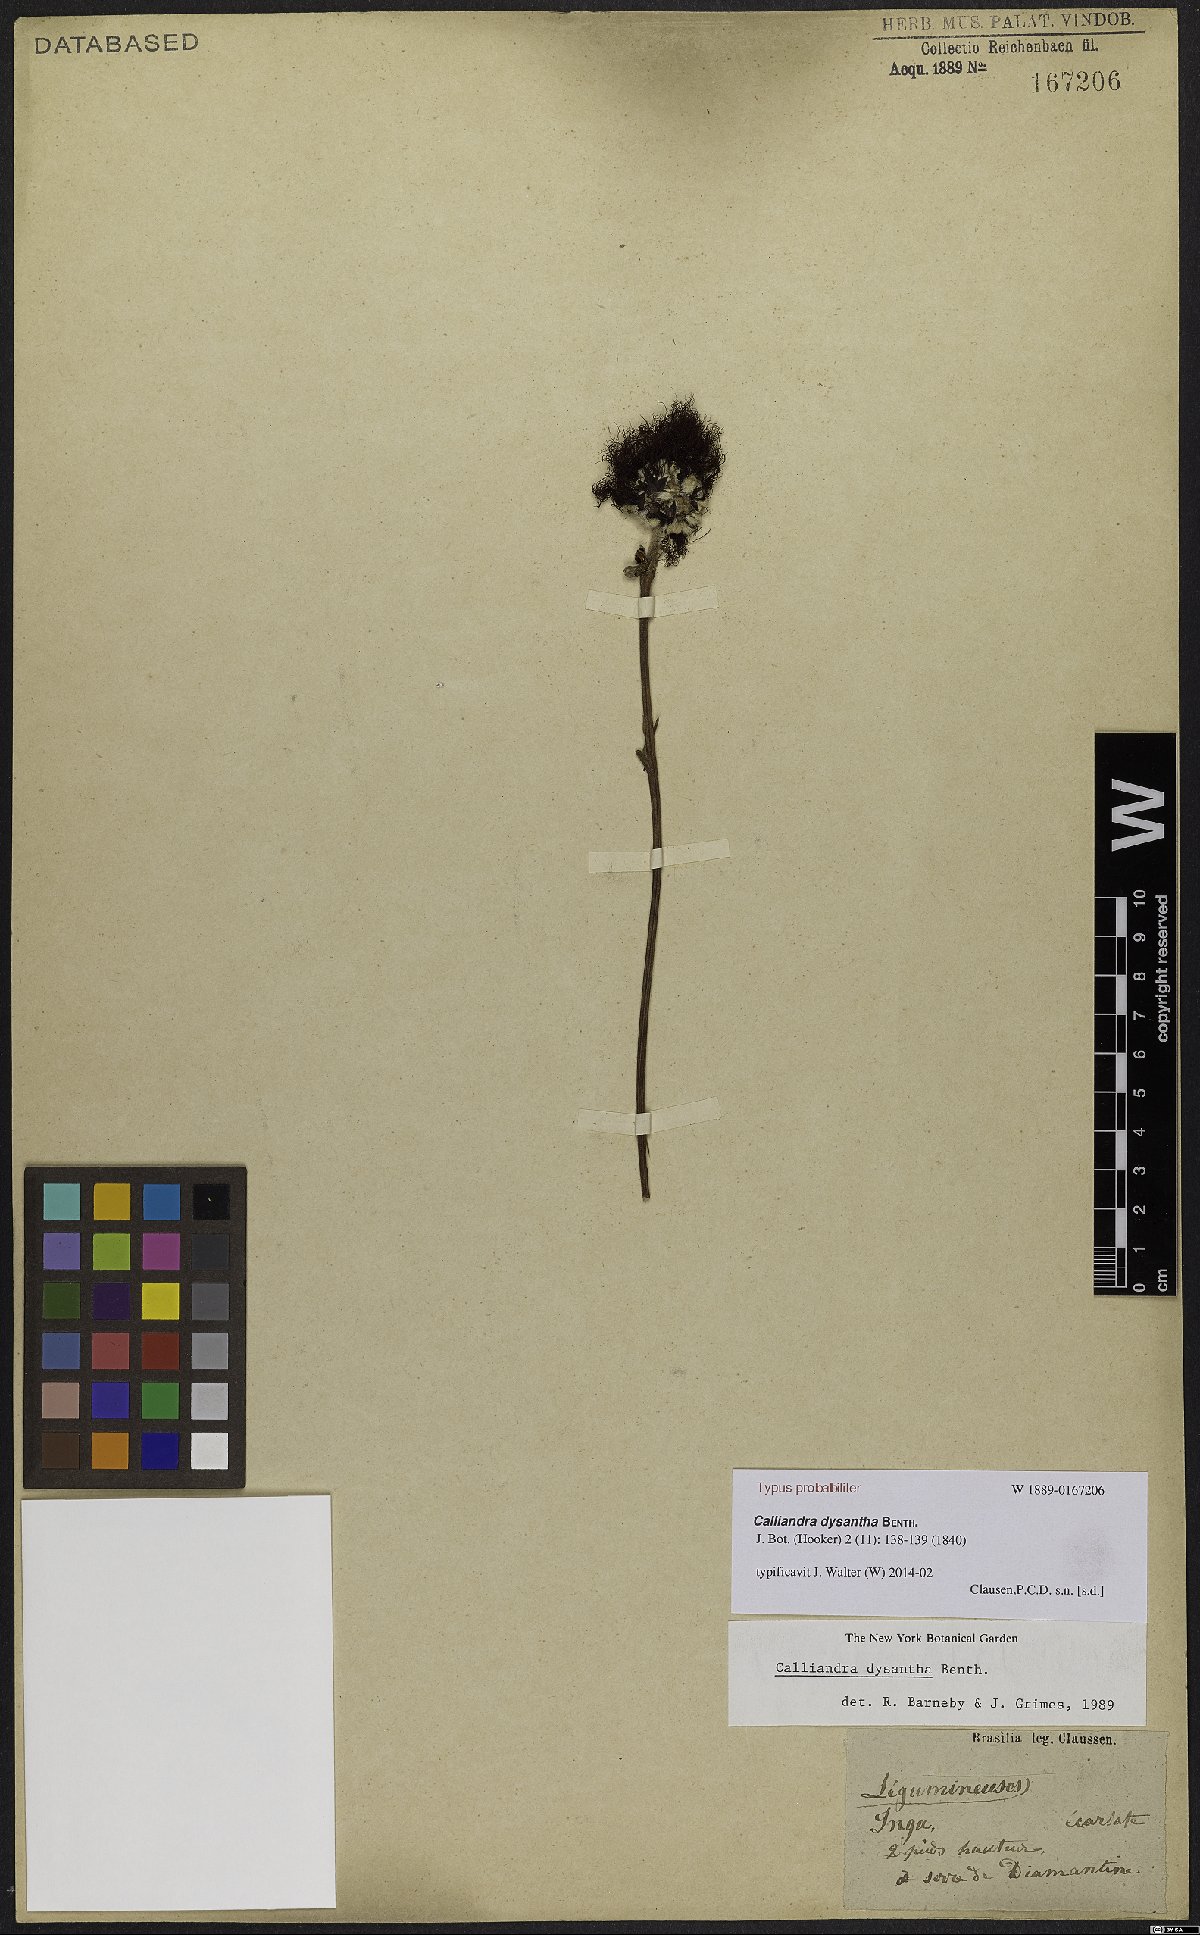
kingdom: Plantae
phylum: Tracheophyta
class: Magnoliopsida
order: Fabales
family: Fabaceae
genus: Calliandra
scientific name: Calliandra dysantha
